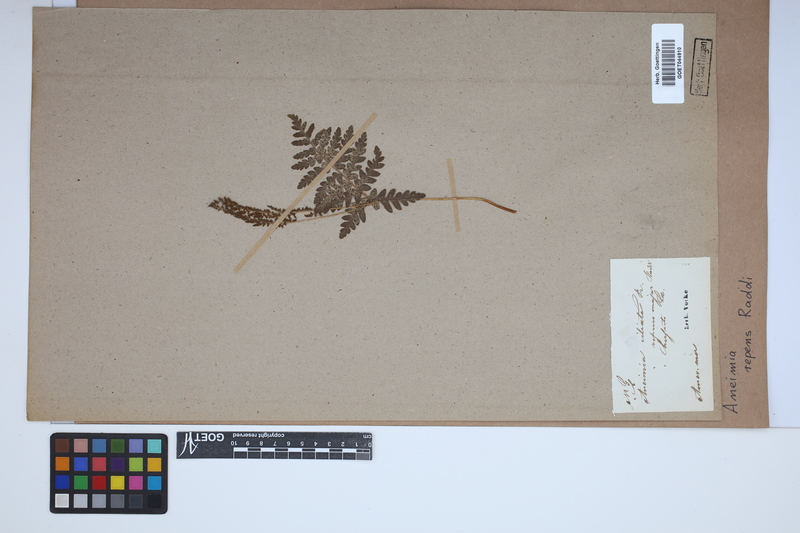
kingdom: Plantae
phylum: Tracheophyta
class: Polypodiopsida
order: Schizaeales
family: Anemiaceae
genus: Anemia
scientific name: Anemia repens
